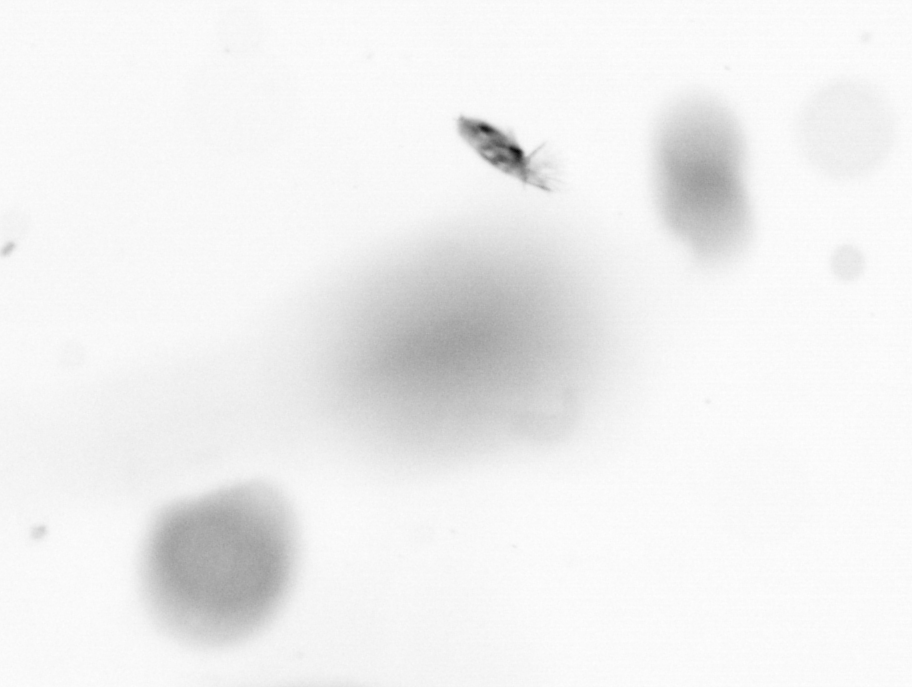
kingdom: Animalia
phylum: Arthropoda
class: Copepoda
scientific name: Copepoda
